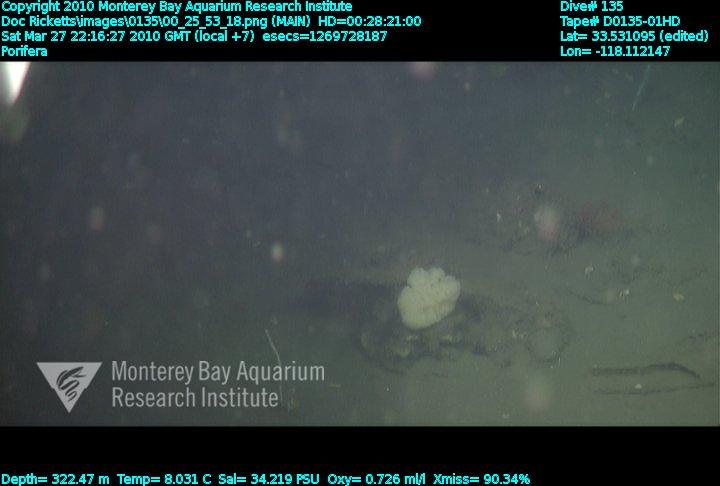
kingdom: Animalia
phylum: Porifera
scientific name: Porifera
